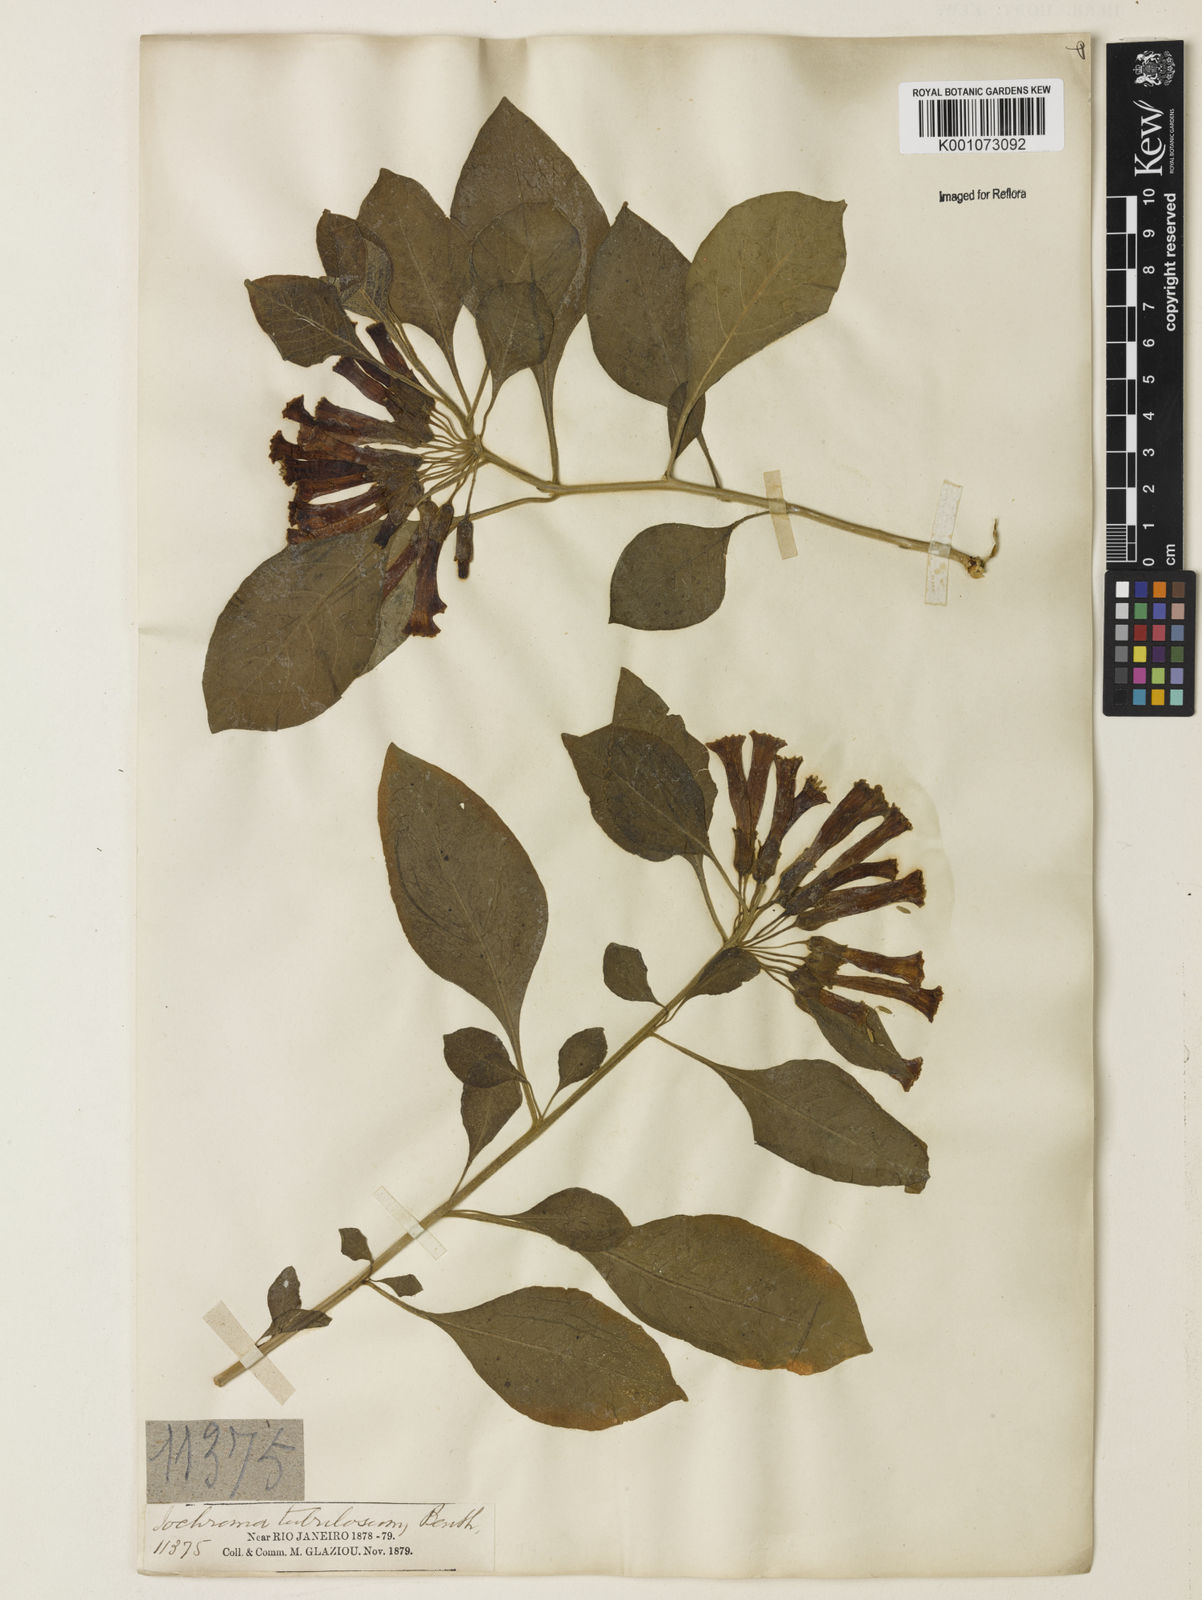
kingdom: Plantae
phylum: Tracheophyta
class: Magnoliopsida
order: Solanales
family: Solanaceae
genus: Iochroma
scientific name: Iochroma cyaneum
